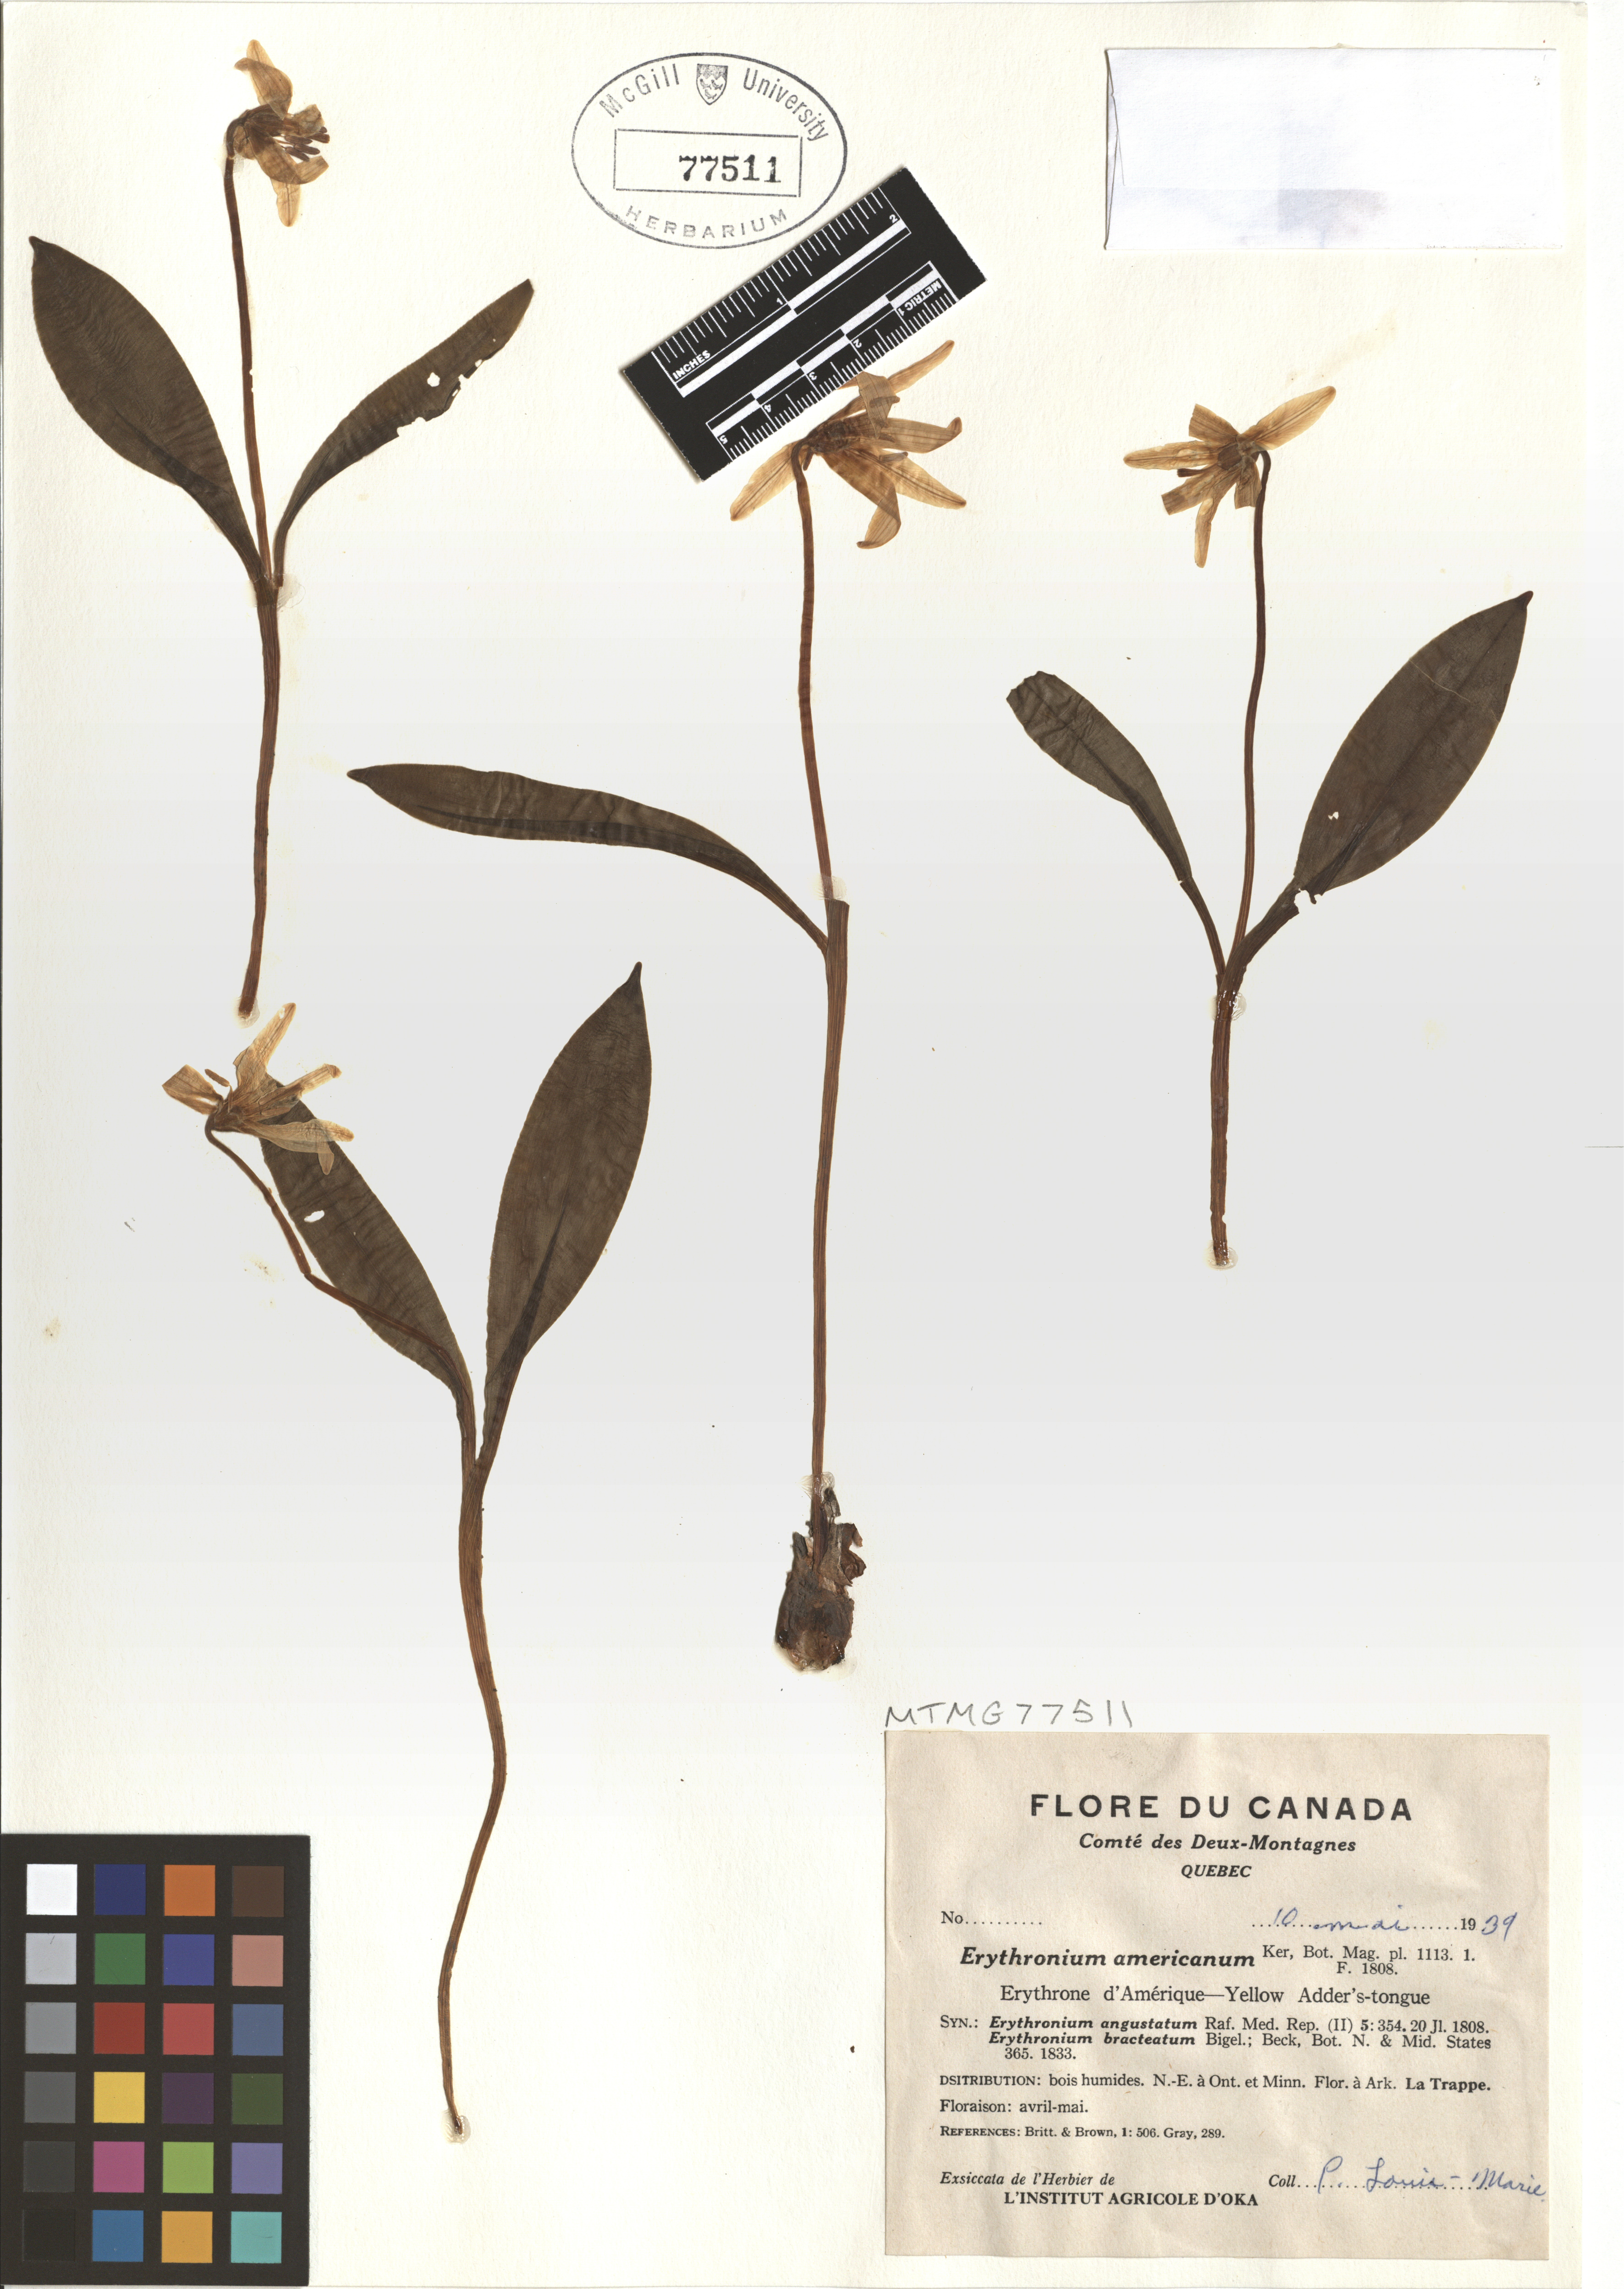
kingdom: Plantae
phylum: Tracheophyta
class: Liliopsida
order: Liliales
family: Liliaceae
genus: Erythronium
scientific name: Erythronium americanum
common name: Yellow adder's-tongue
